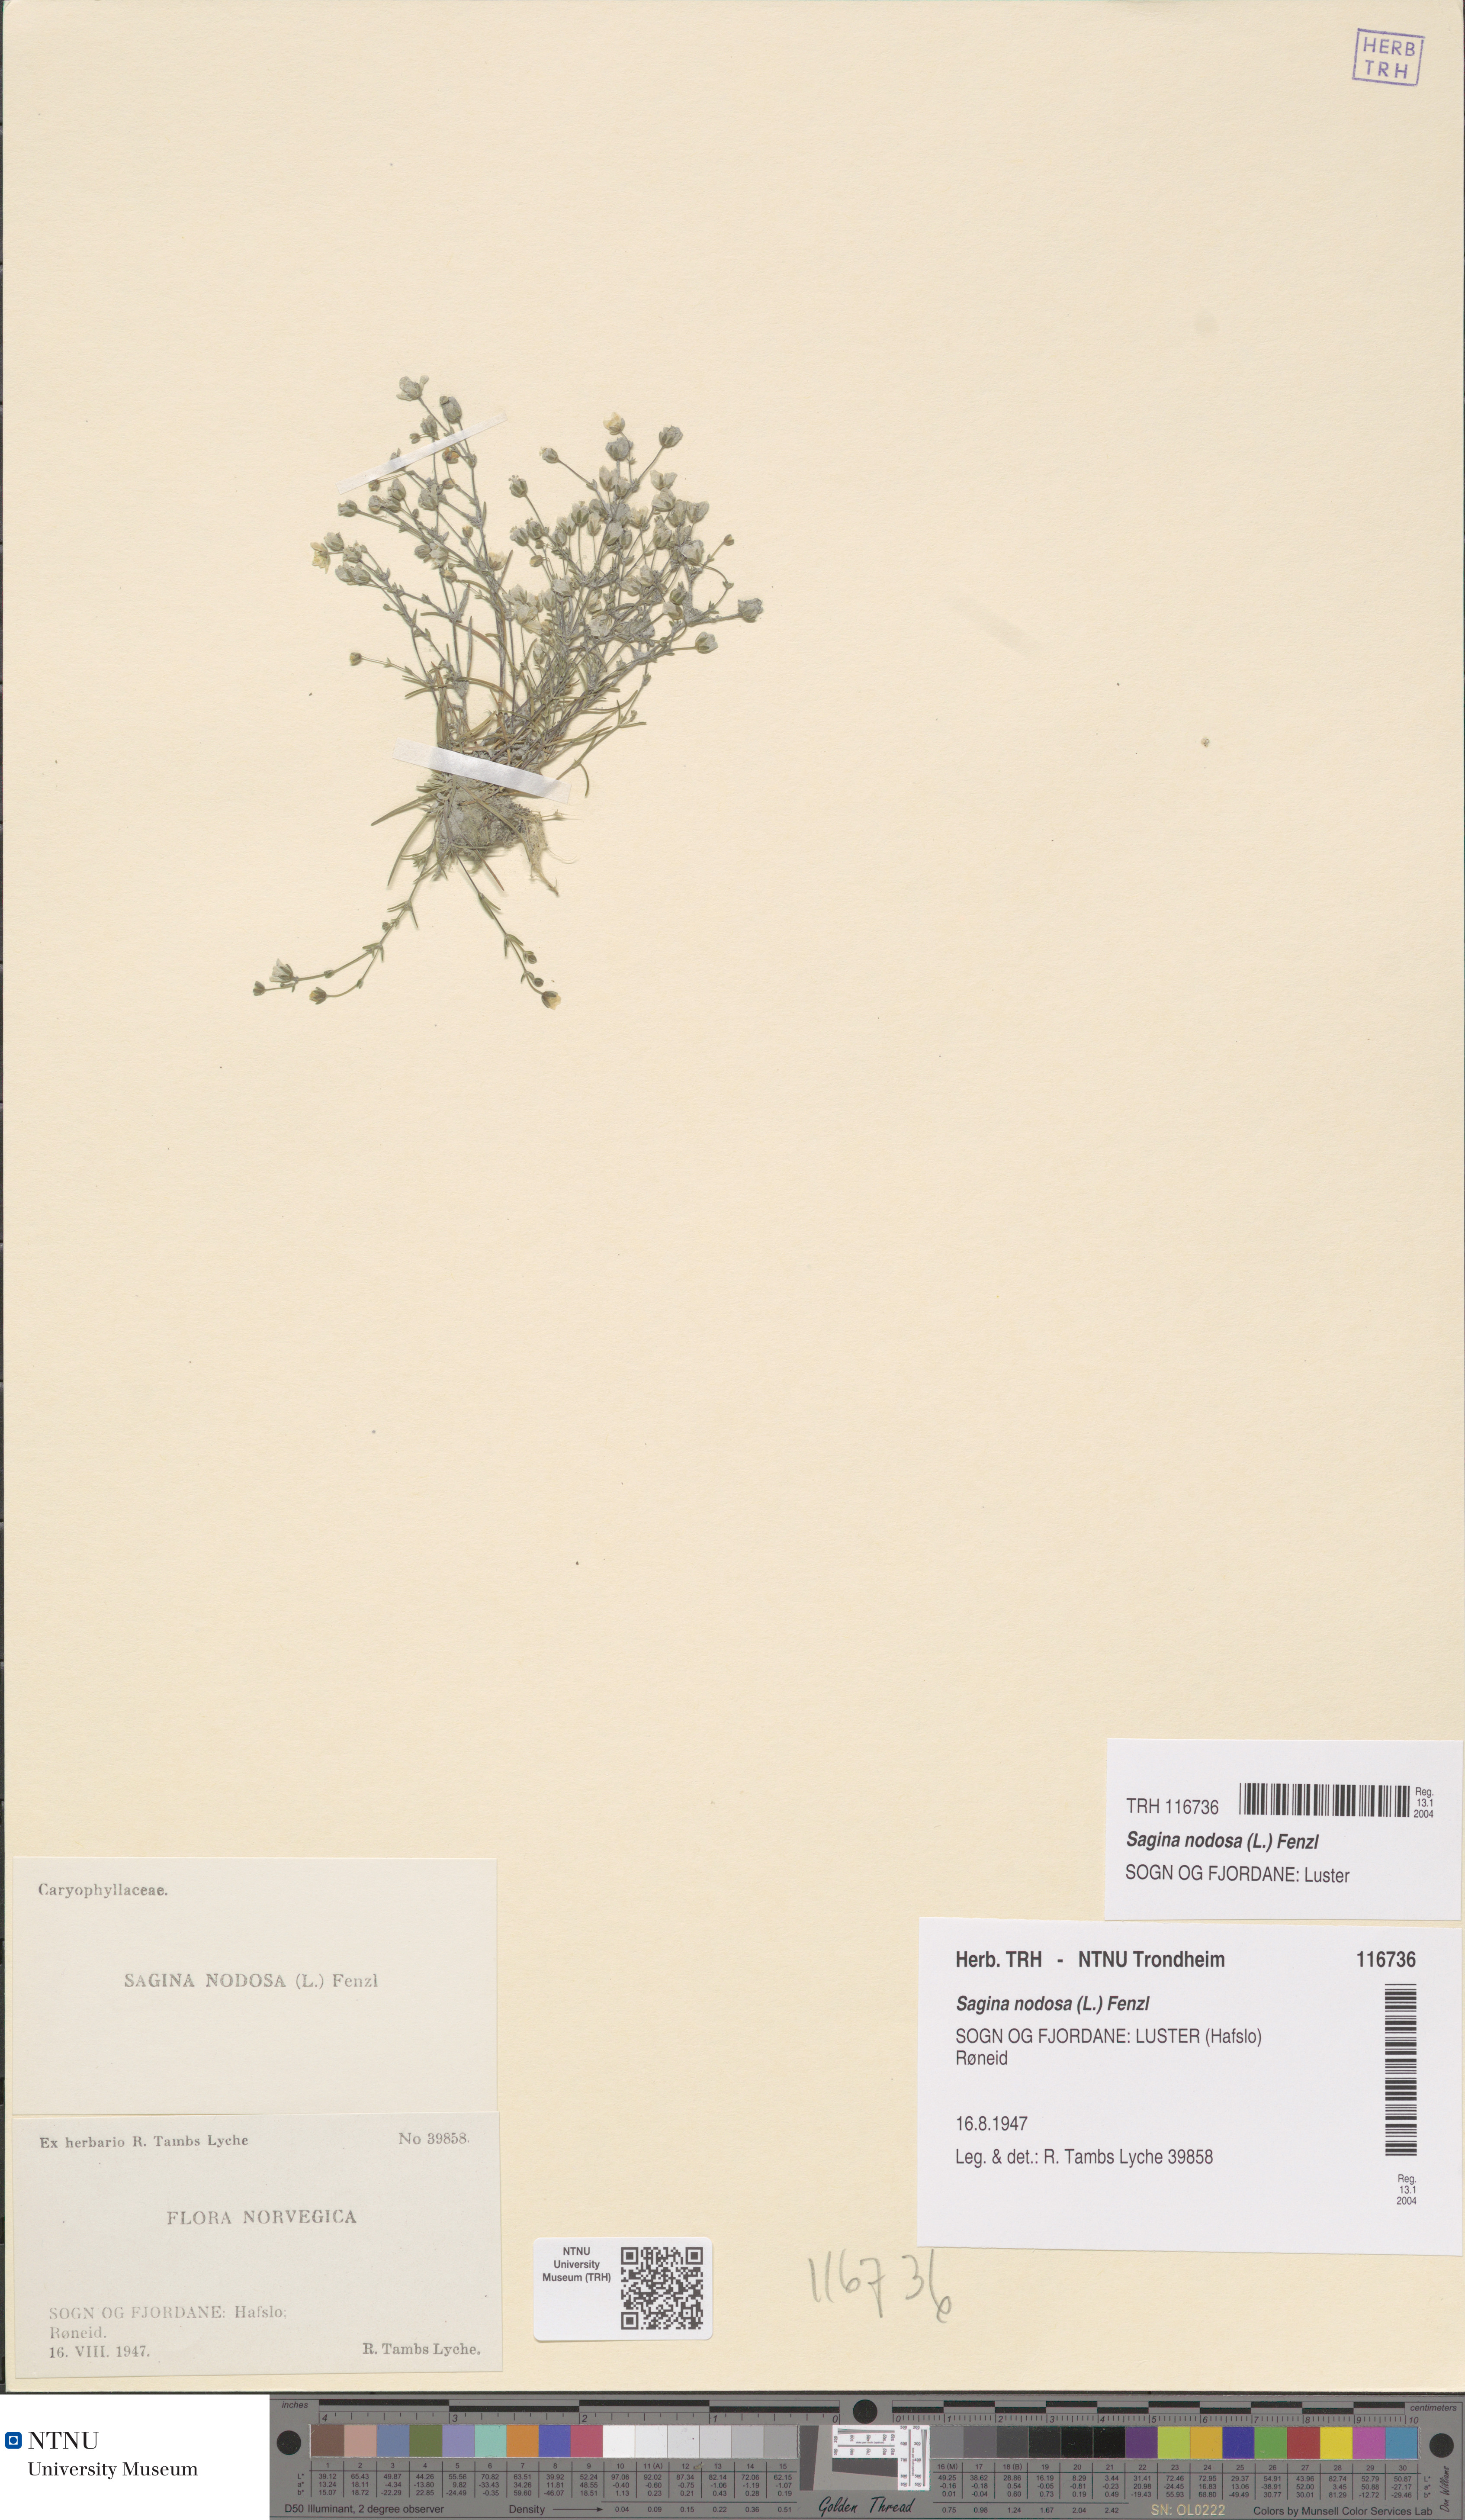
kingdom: Plantae
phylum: Tracheophyta
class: Magnoliopsida
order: Caryophyllales
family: Caryophyllaceae
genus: Sagina
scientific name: Sagina nodosa
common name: Knotted pearlwort
